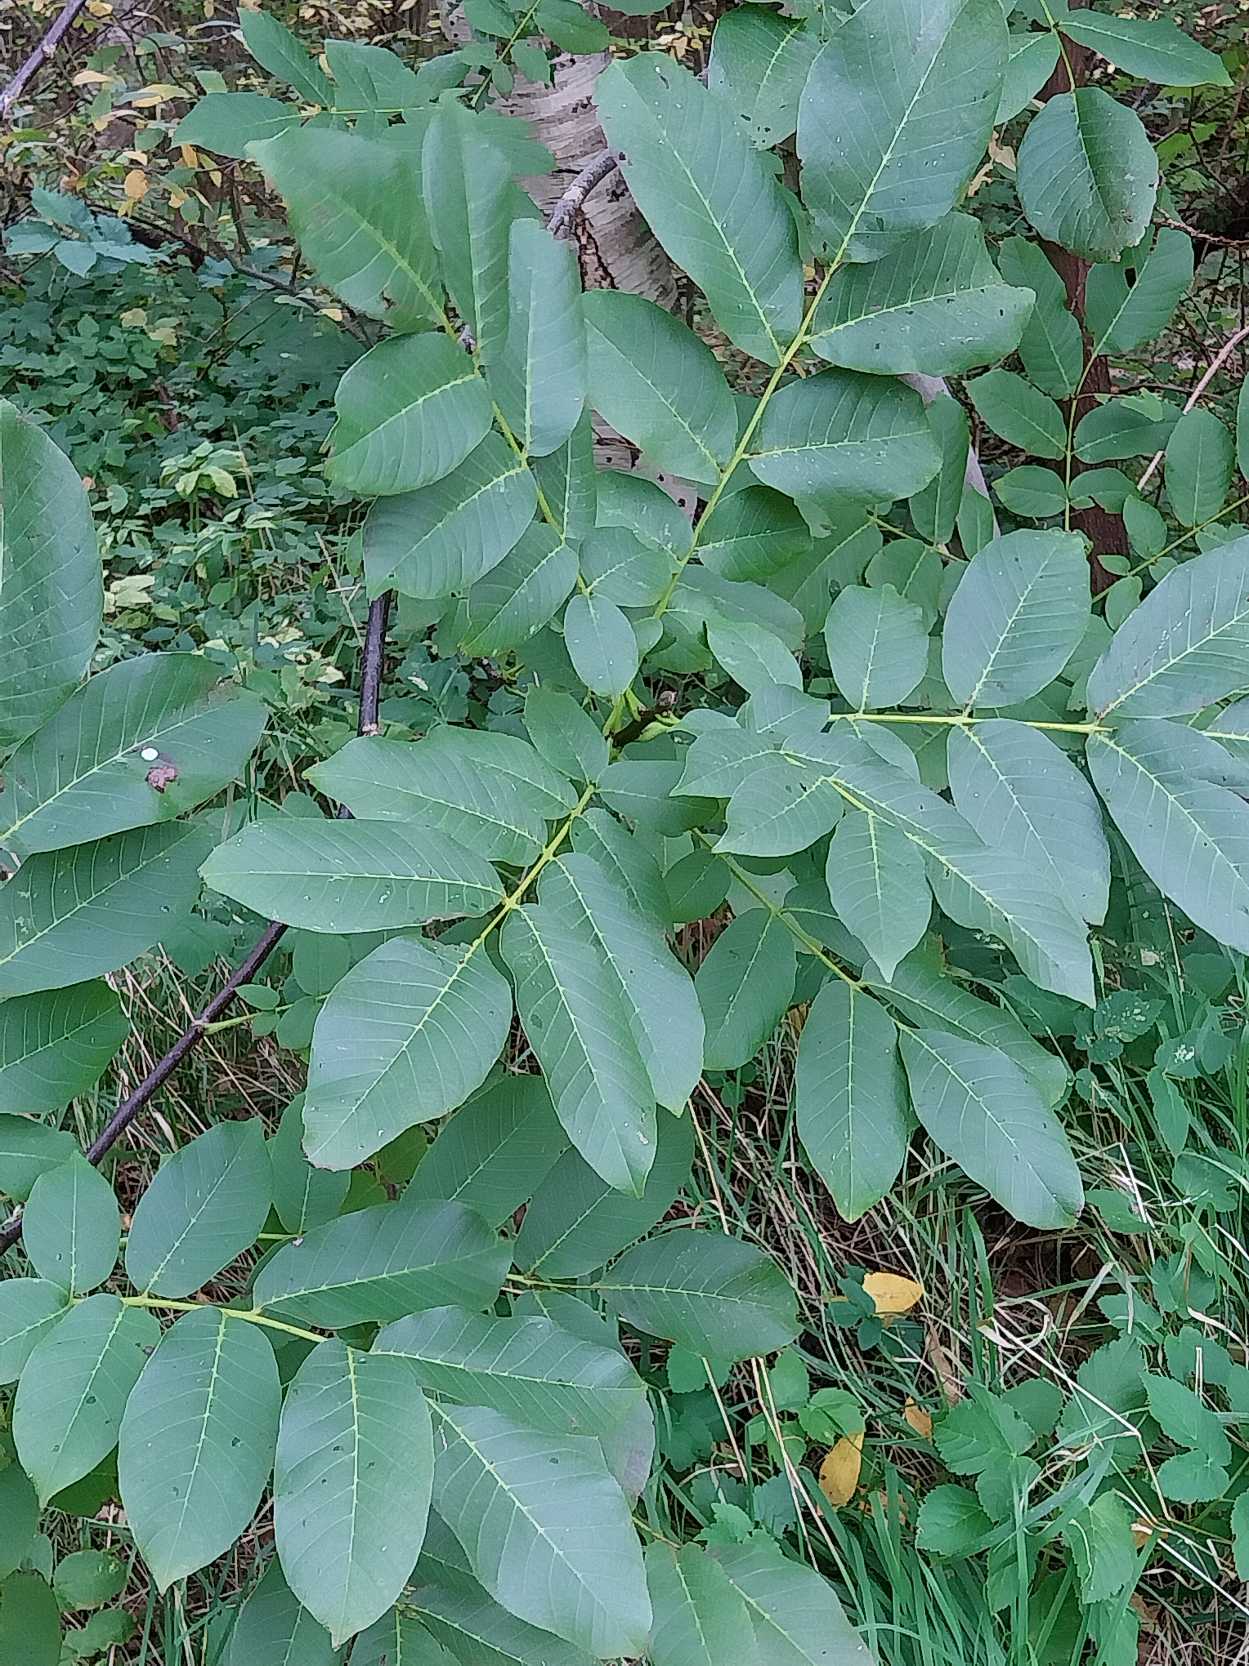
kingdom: Plantae
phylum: Tracheophyta
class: Magnoliopsida
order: Fagales
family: Juglandaceae
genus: Juglans
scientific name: Juglans regia
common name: Almindelig valnød
